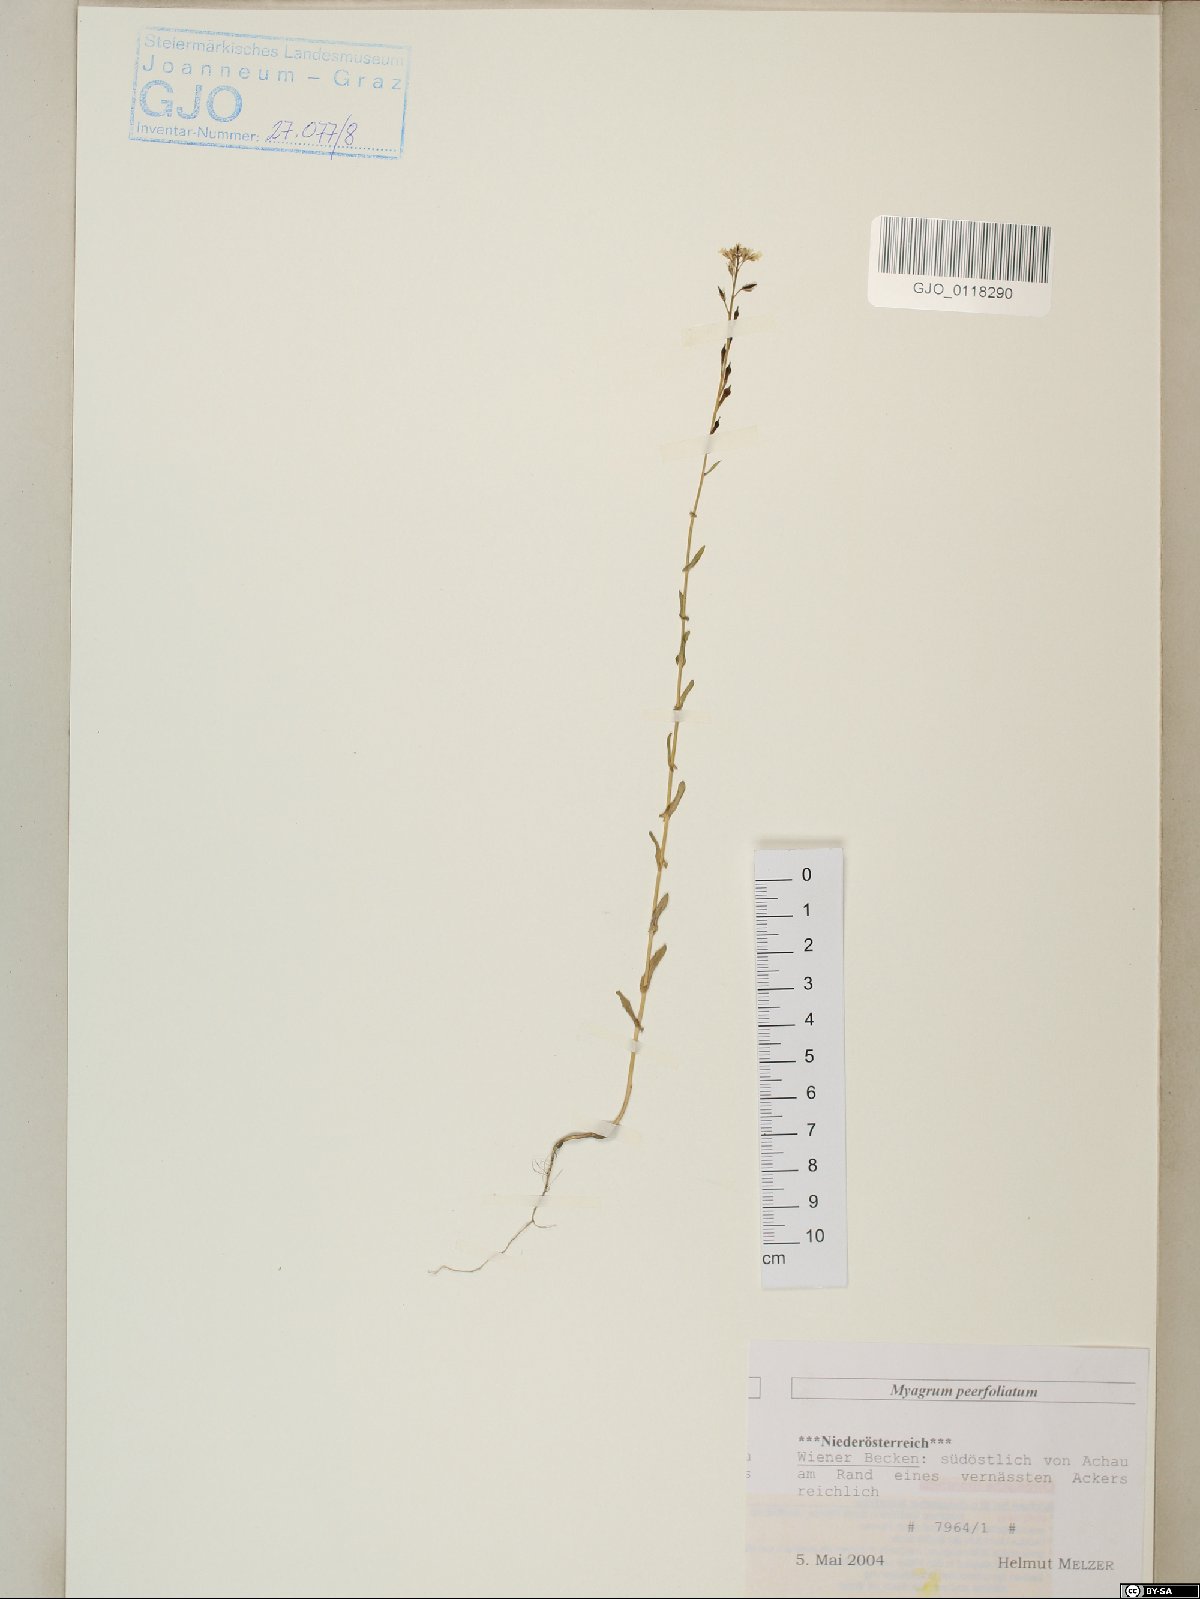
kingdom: Plantae
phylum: Tracheophyta
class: Magnoliopsida
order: Brassicales
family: Brassicaceae
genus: Myagrum
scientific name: Myagrum perfoliatum
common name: Mitre cress
